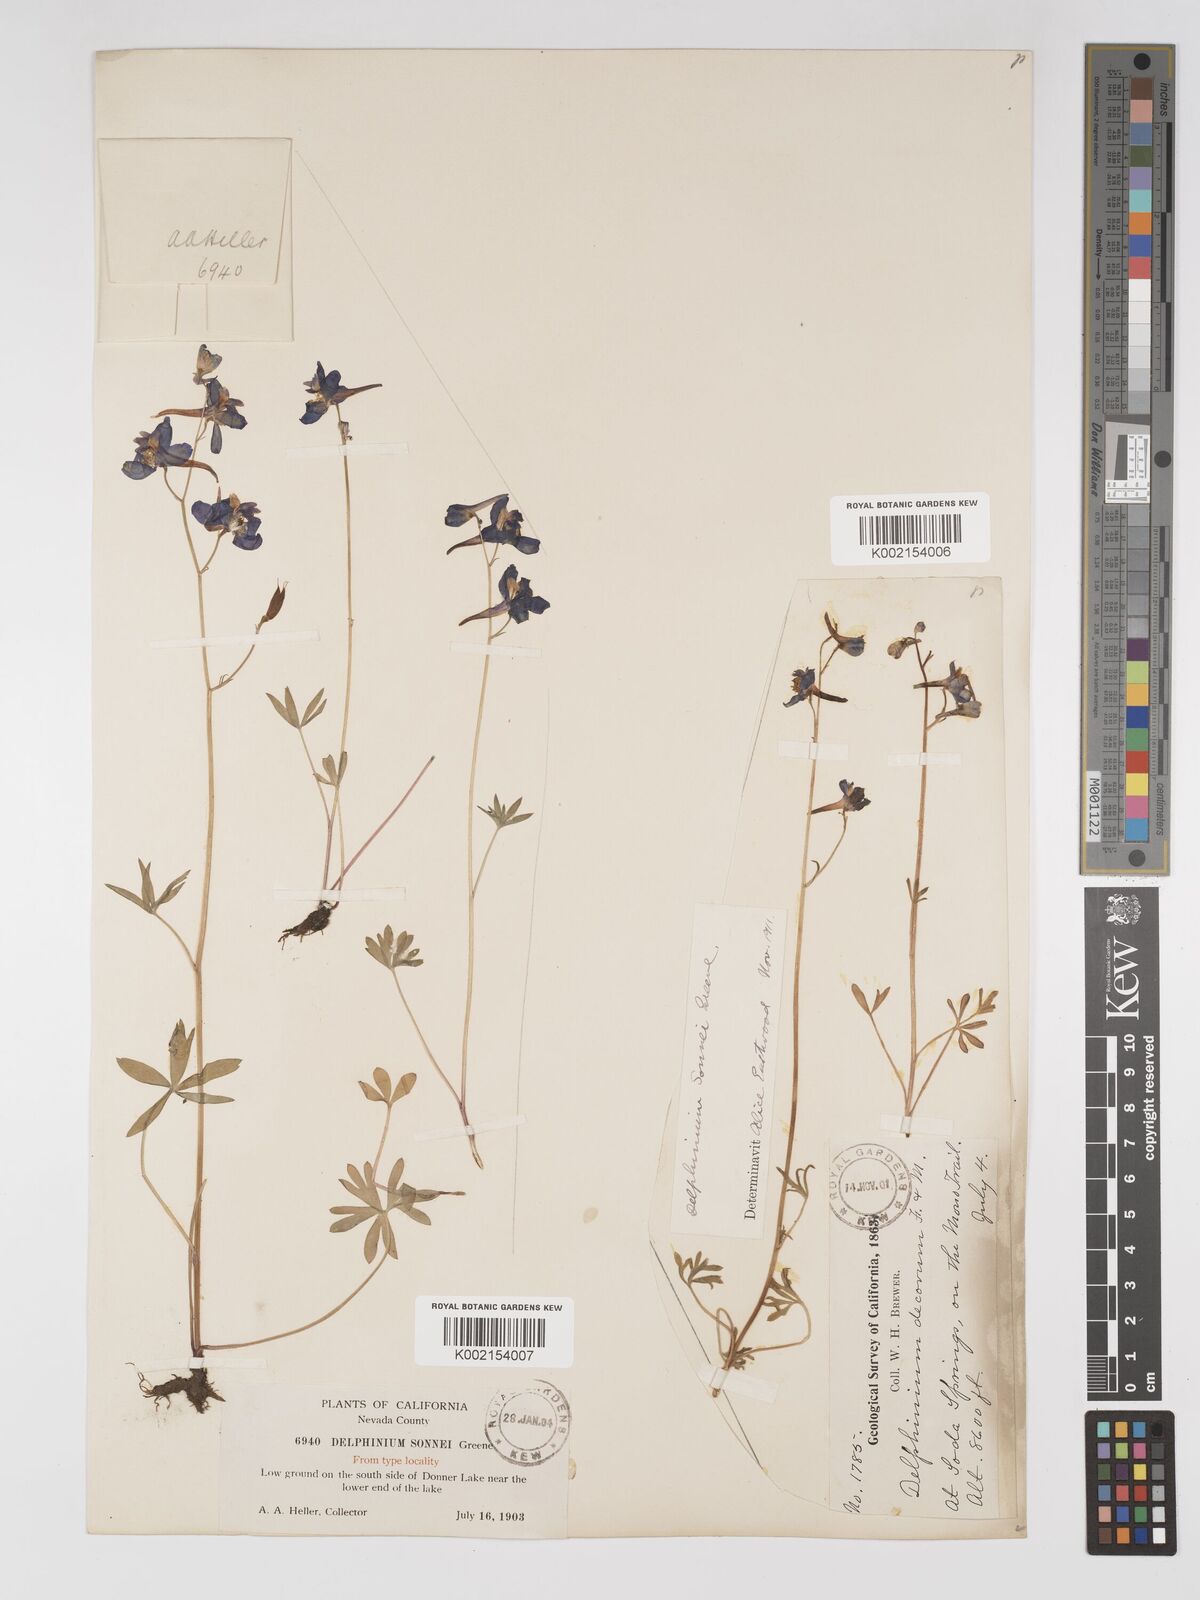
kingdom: Plantae
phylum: Tracheophyta
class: Magnoliopsida
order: Ranunculales
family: Ranunculaceae
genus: Delphinium
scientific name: Delphinium nuttallianum
